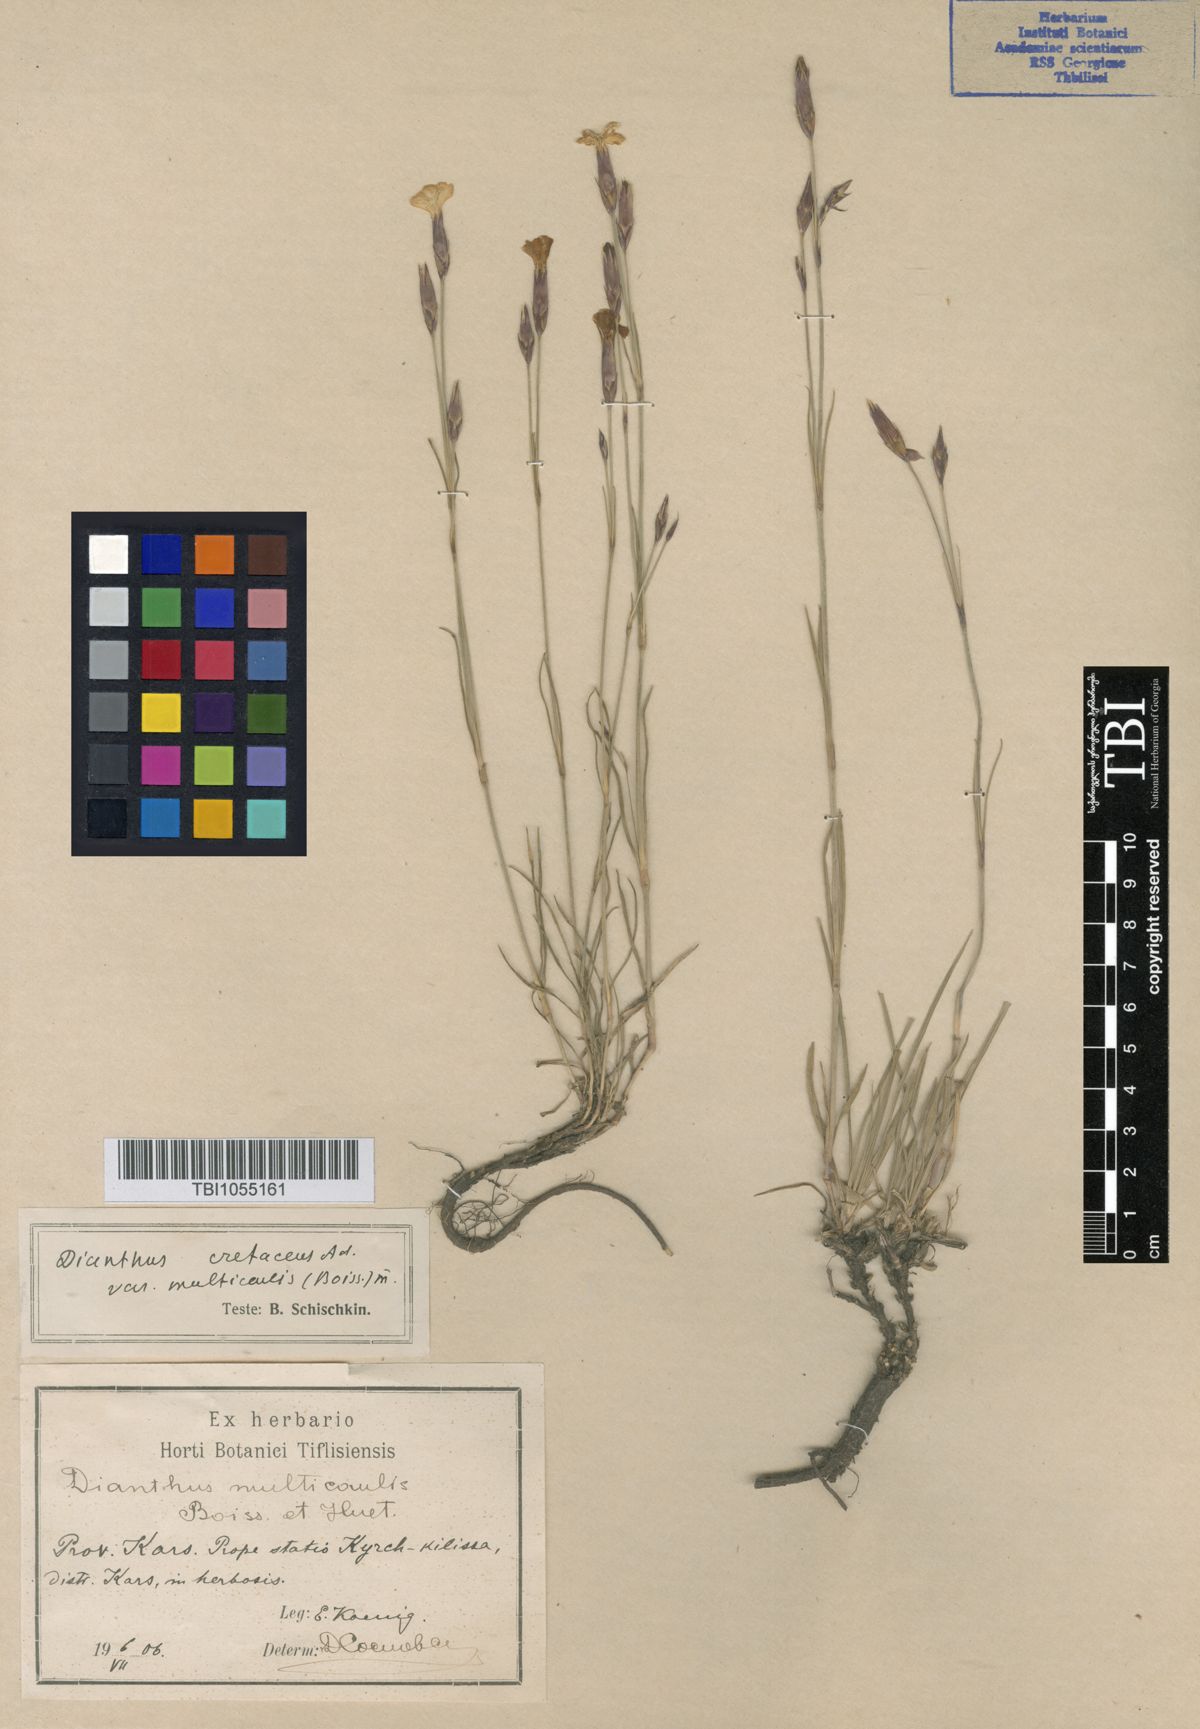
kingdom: Plantae
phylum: Tracheophyta
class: Magnoliopsida
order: Caryophyllales
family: Caryophyllaceae
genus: Dianthus
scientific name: Dianthus cretaceus
